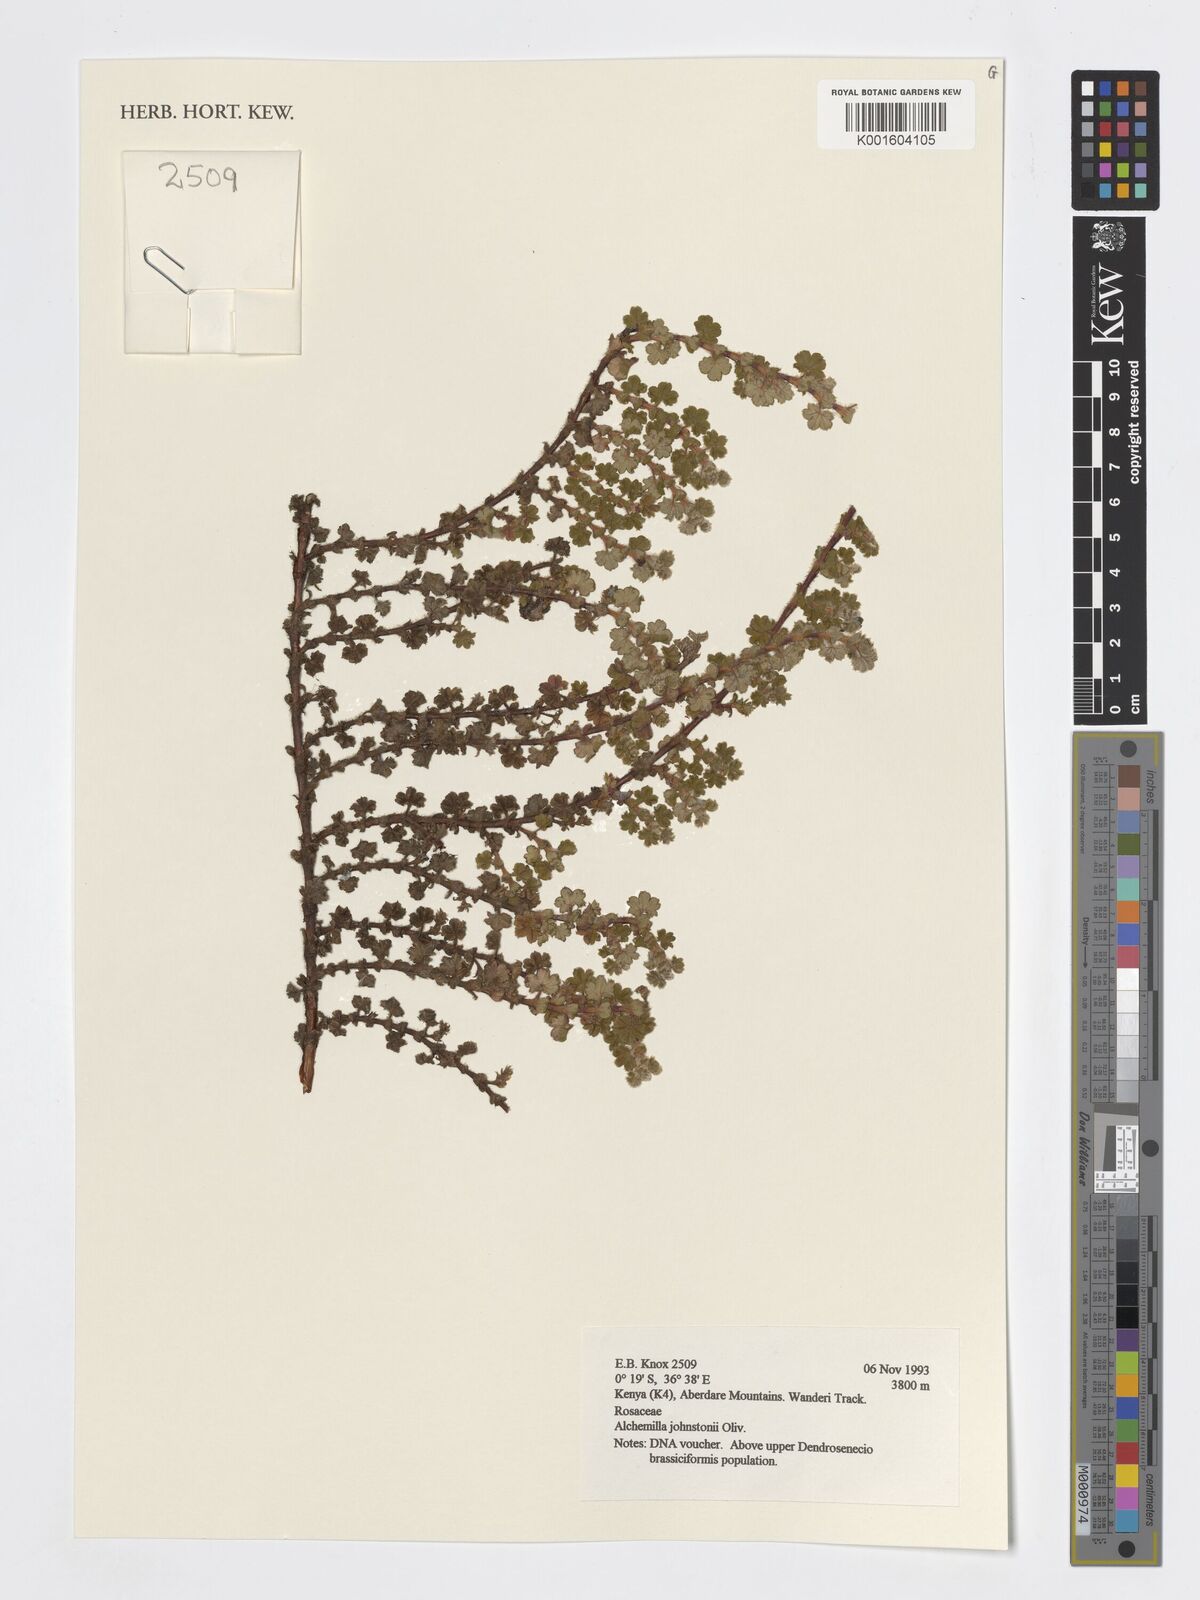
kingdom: Plantae
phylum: Tracheophyta
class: Magnoliopsida
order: Rosales
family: Rosaceae
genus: Alchemilla
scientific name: Alchemilla johnstonii
